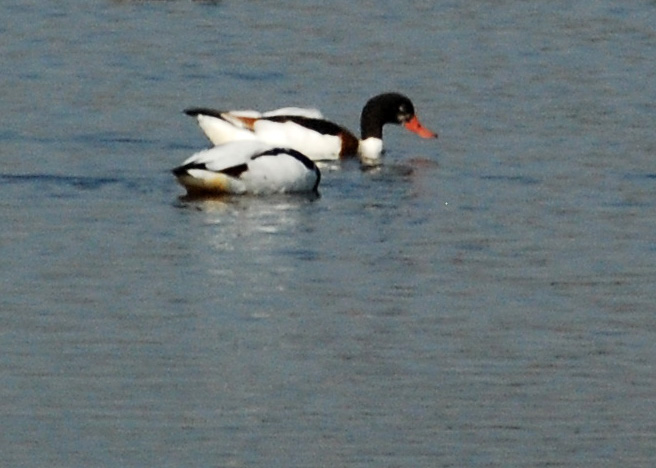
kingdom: Animalia
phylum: Chordata
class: Aves
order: Anseriformes
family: Anatidae
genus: Tadorna
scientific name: Tadorna tadorna
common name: Common shelduck
